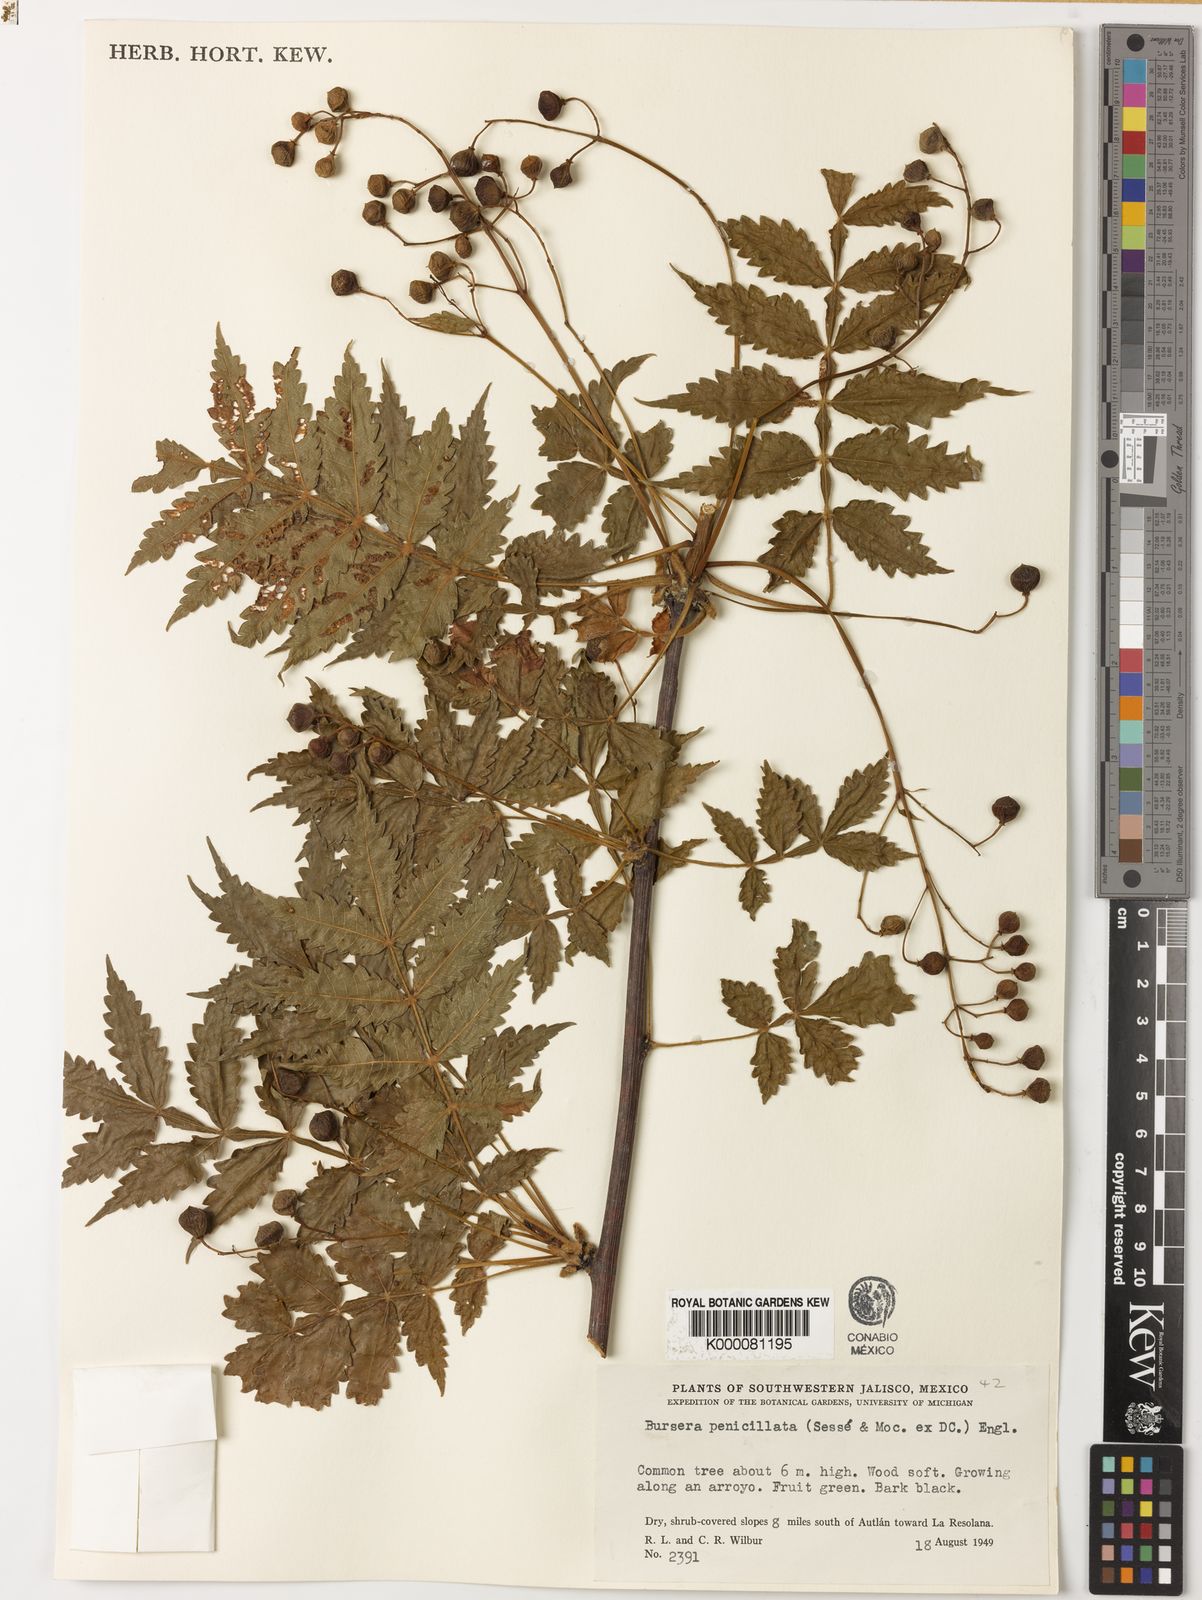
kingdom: Plantae
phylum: Tracheophyta
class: Magnoliopsida
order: Sapindales
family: Burseraceae
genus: Bursera
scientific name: Bursera penicillata
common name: Indian-lavender
